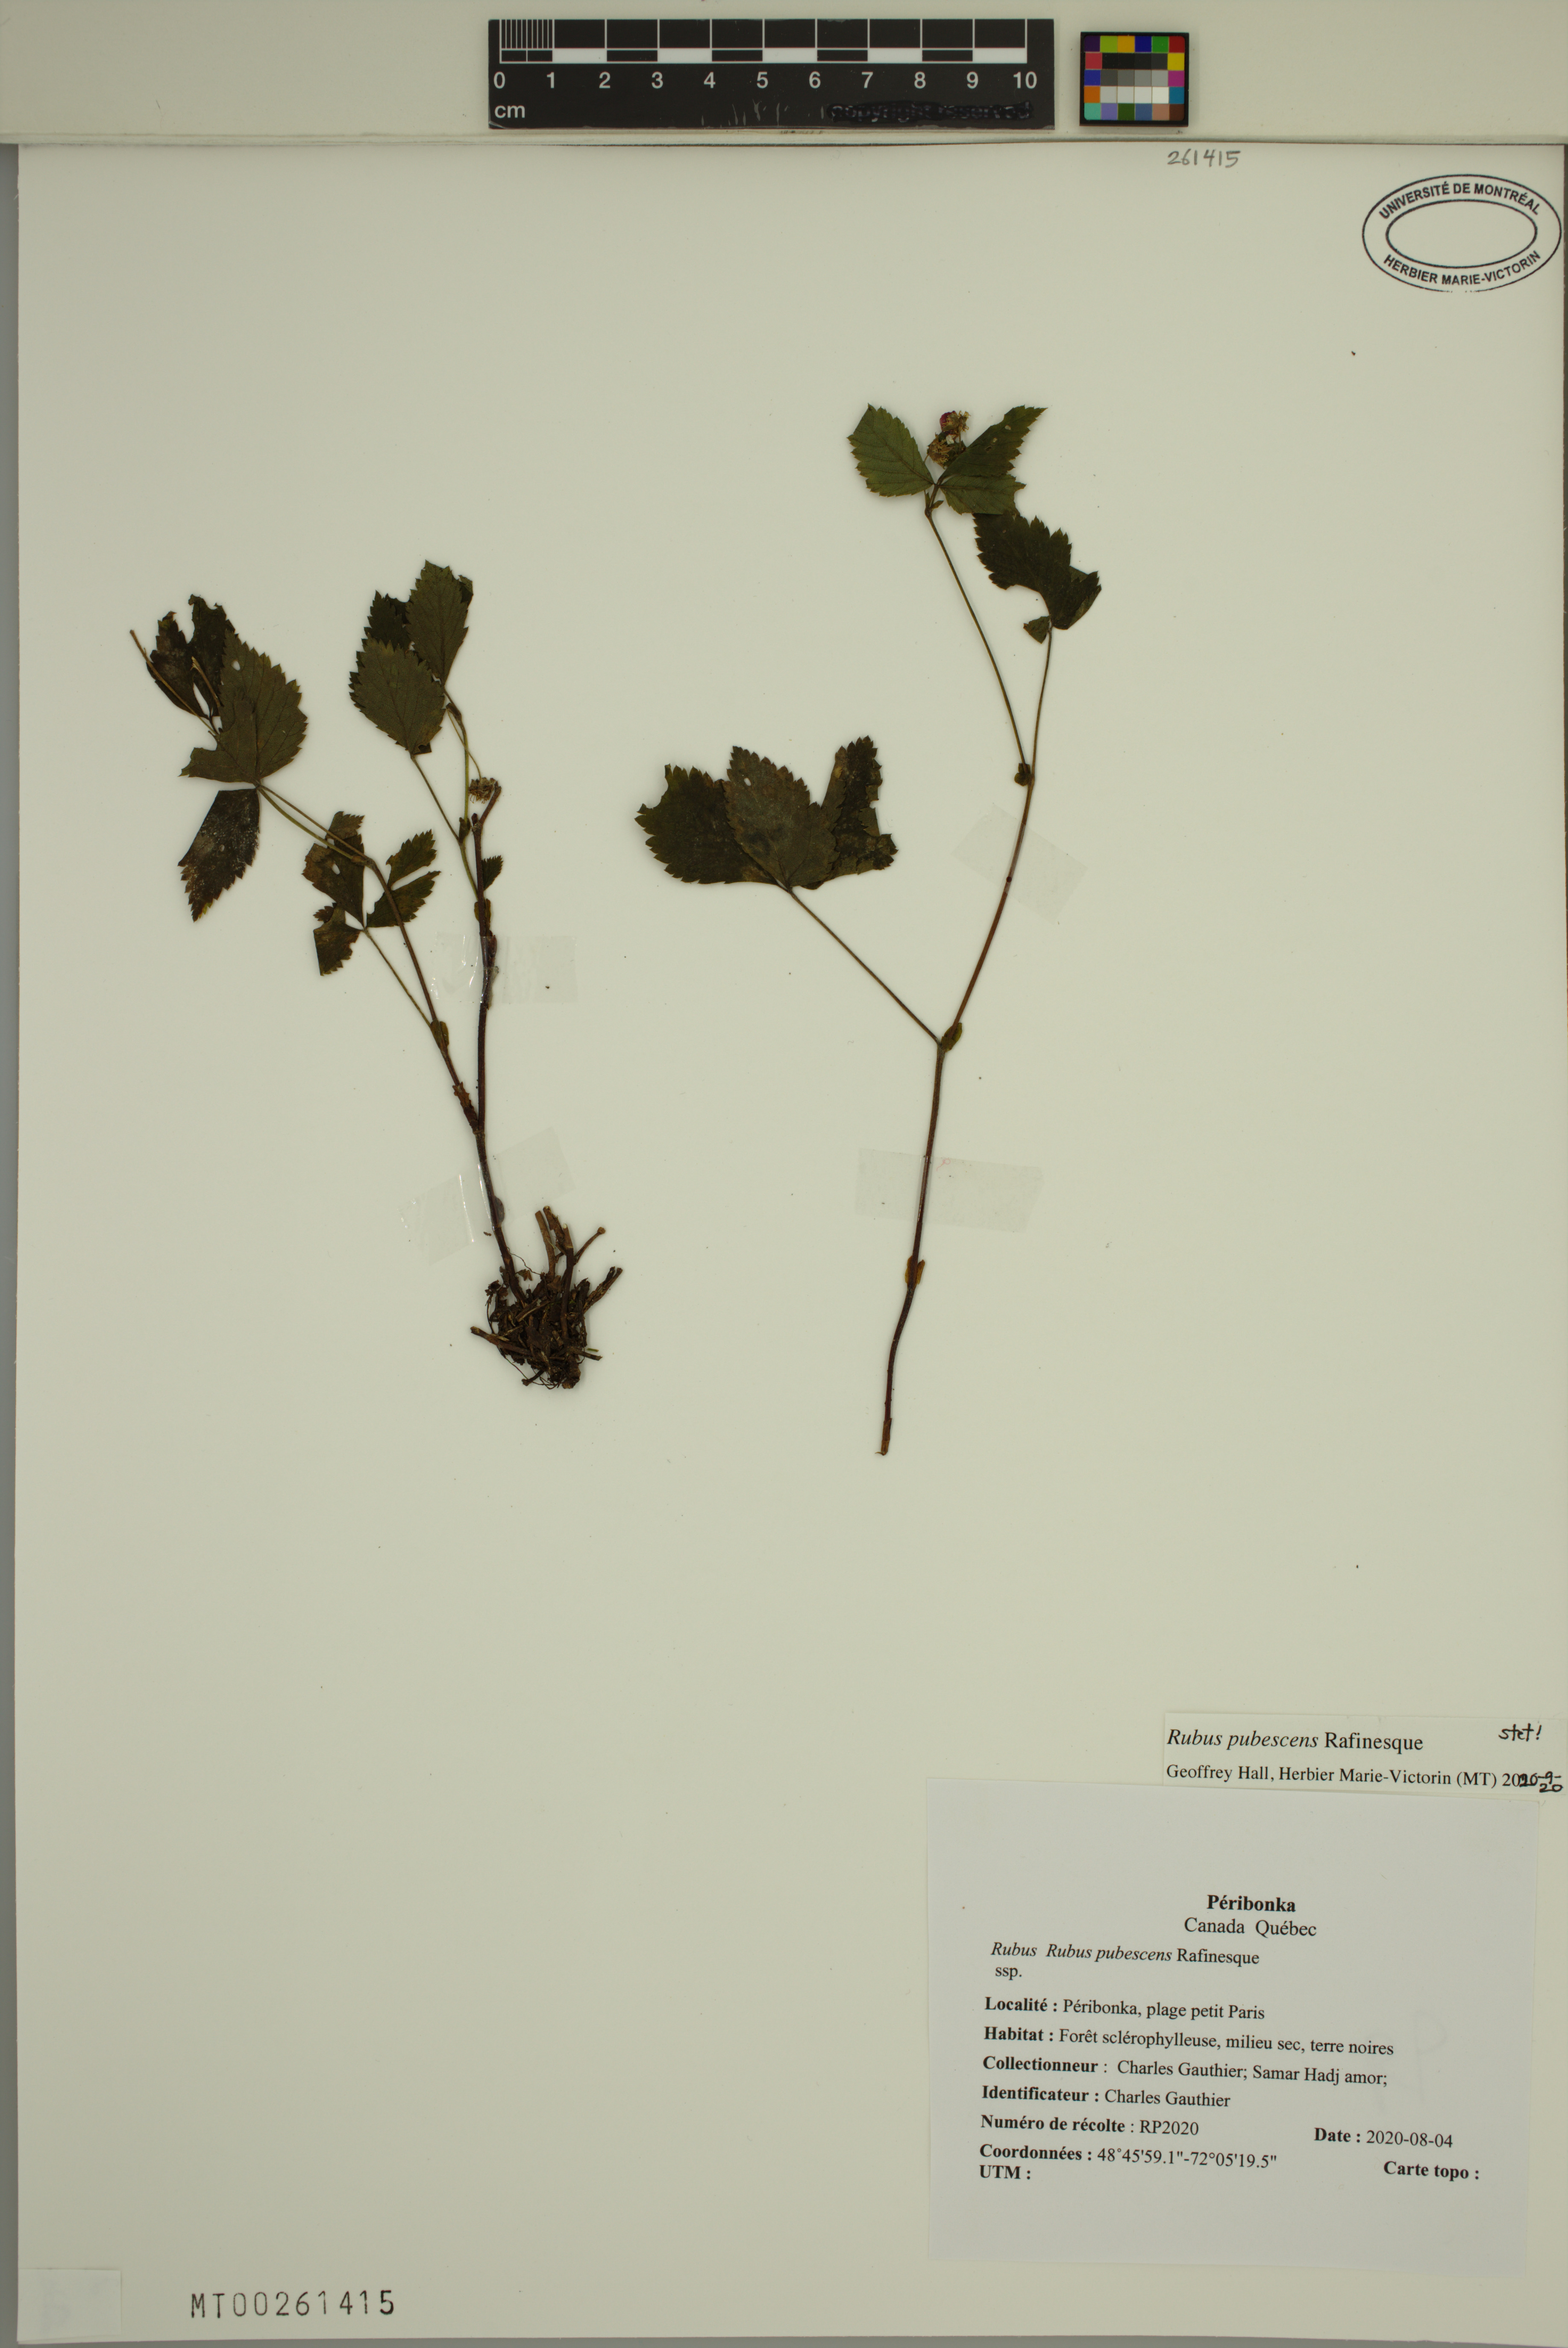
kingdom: Plantae
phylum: Tracheophyta
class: Magnoliopsida
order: Rosales
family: Rosaceae
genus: Rubus
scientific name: Rubus pubescens
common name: Dwarf raspberry
